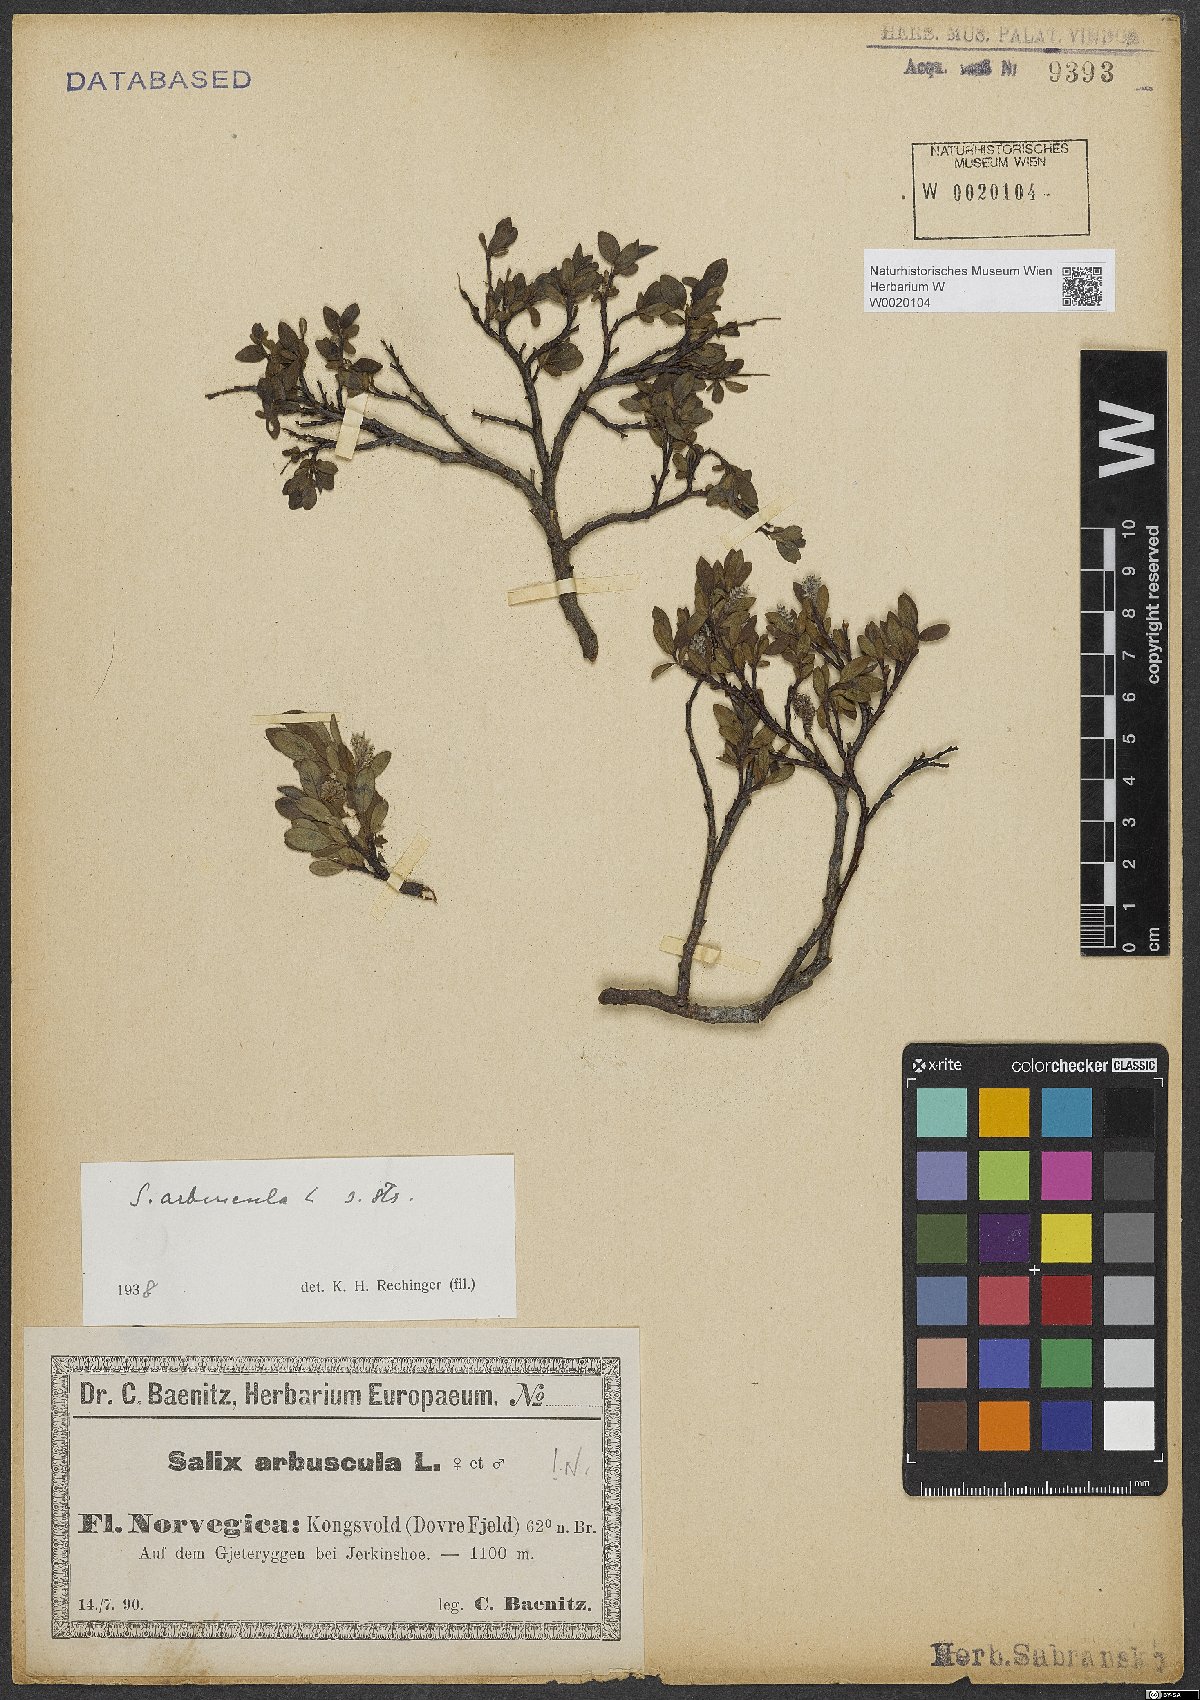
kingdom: Plantae
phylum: Tracheophyta
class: Magnoliopsida
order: Malpighiales
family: Salicaceae
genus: Salix
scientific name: Salix arbuscula
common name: Mountain willow
